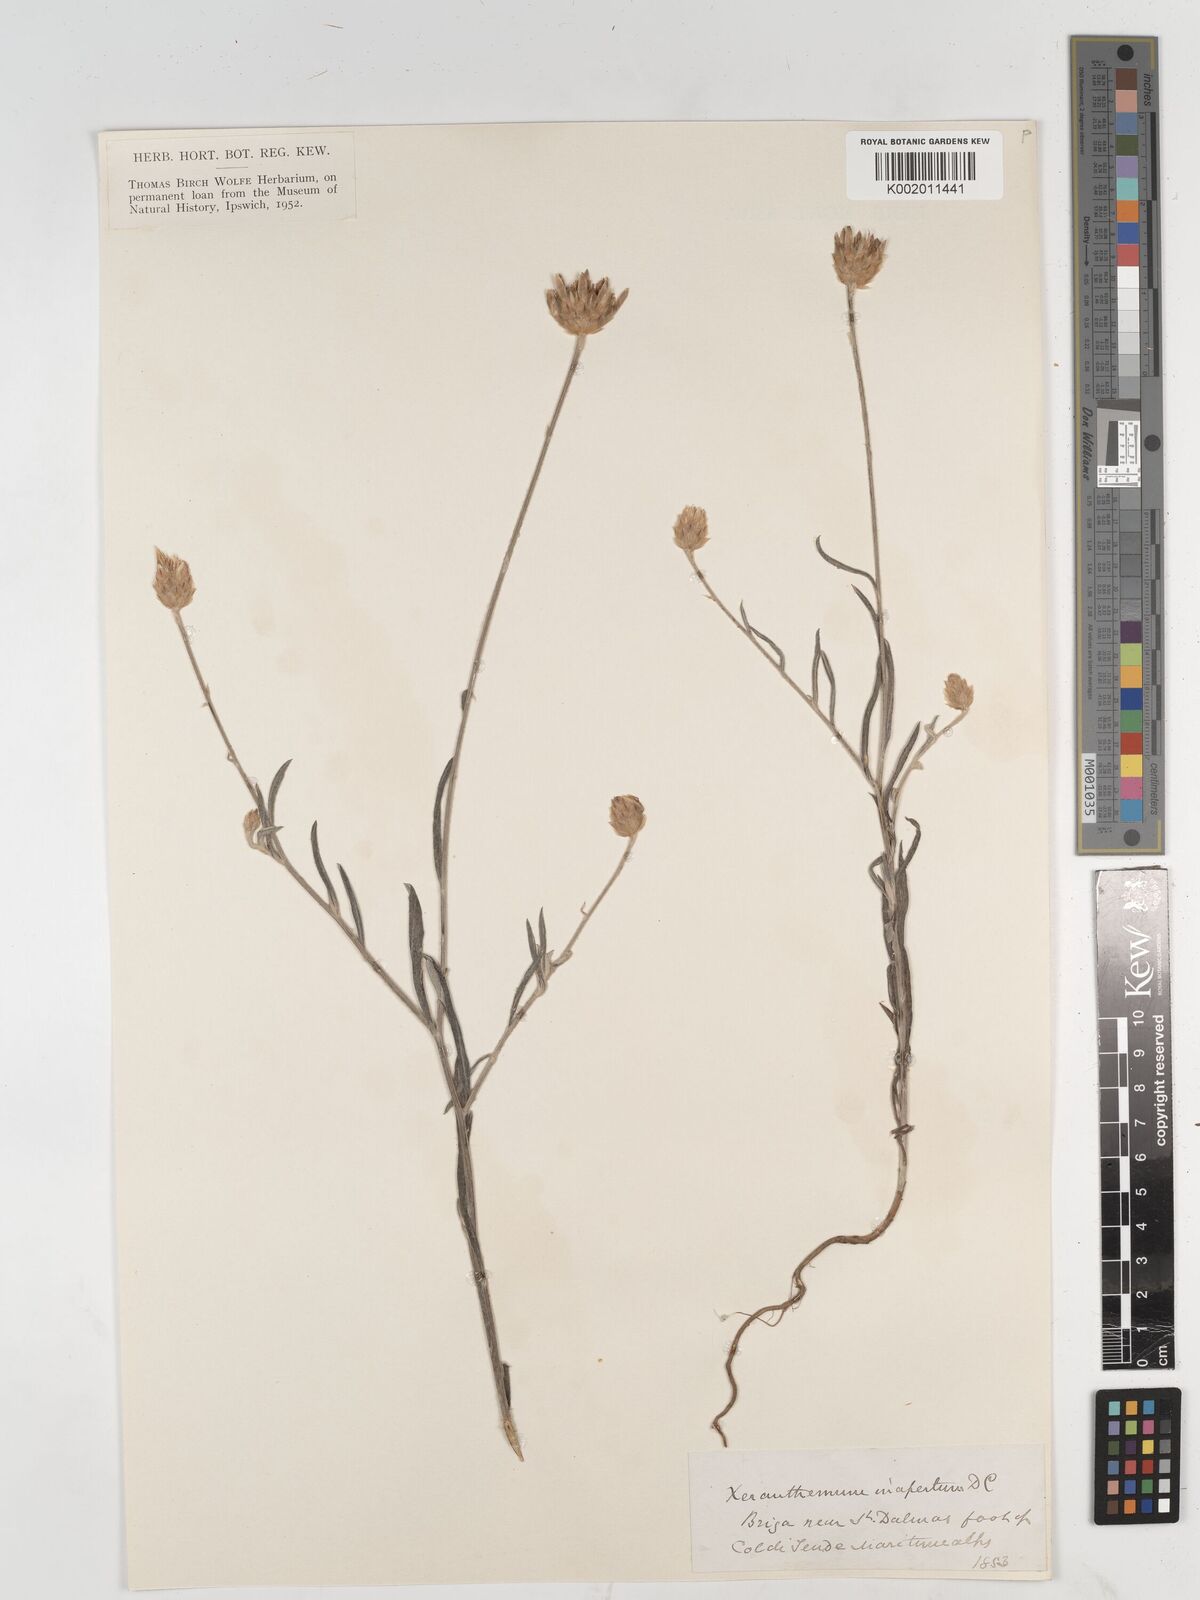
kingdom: Plantae
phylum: Tracheophyta
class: Magnoliopsida
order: Asterales
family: Asteraceae
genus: Xeranthemum
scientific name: Xeranthemum
